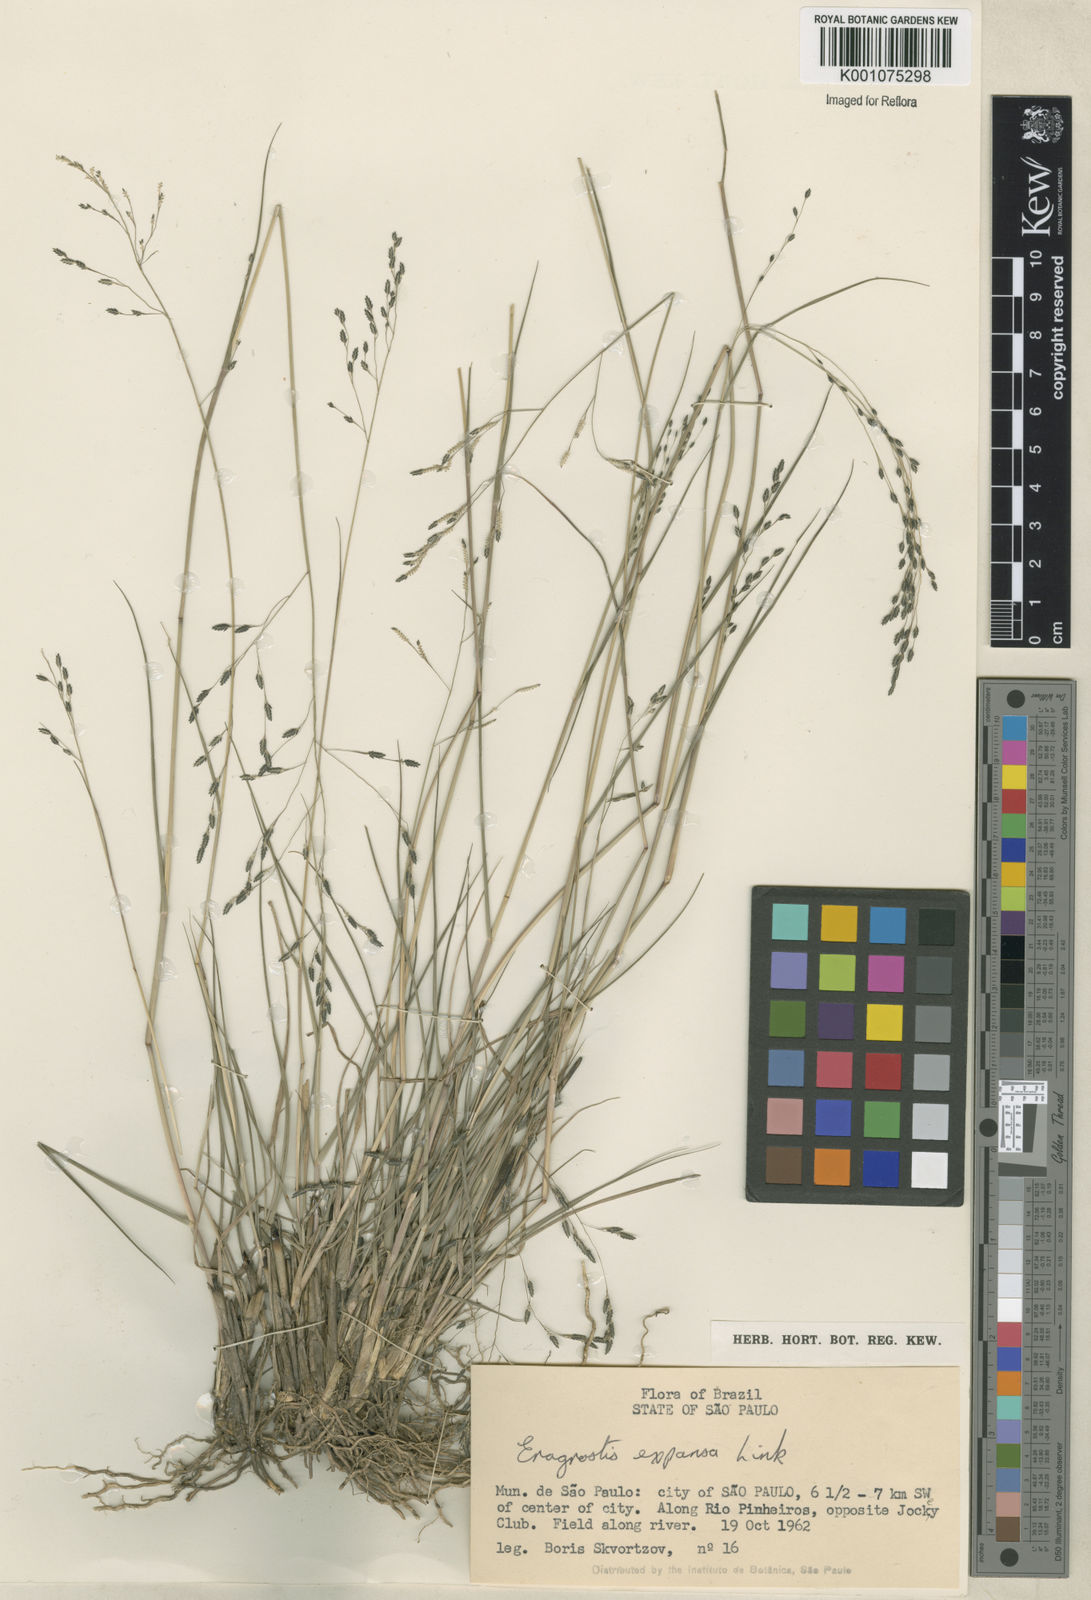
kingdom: Plantae
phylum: Tracheophyta
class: Liliopsida
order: Poales
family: Poaceae
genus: Eragrostis
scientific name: Eragrostis bahiensis
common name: Bahia lovegrass
